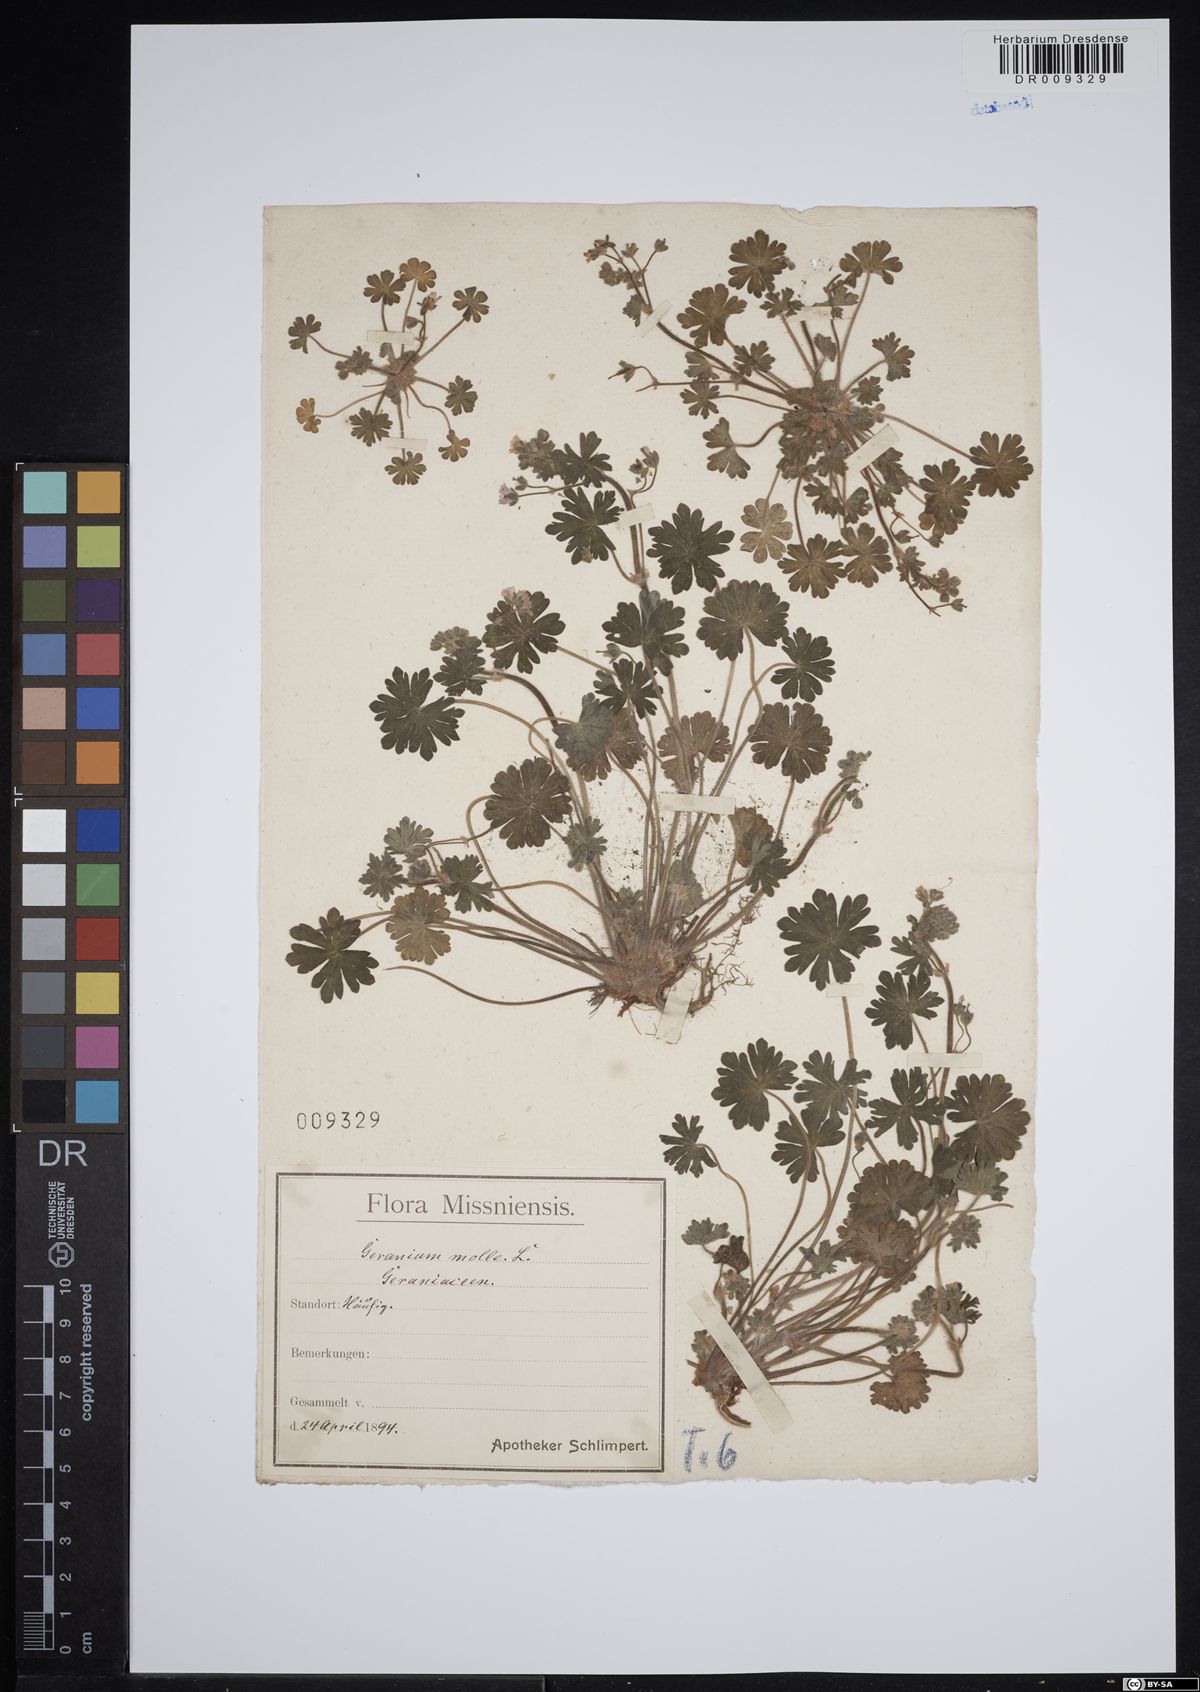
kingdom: Plantae
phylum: Tracheophyta
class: Magnoliopsida
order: Geraniales
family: Geraniaceae
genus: Geranium
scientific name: Geranium molle
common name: Dove's-foot crane's-bill
